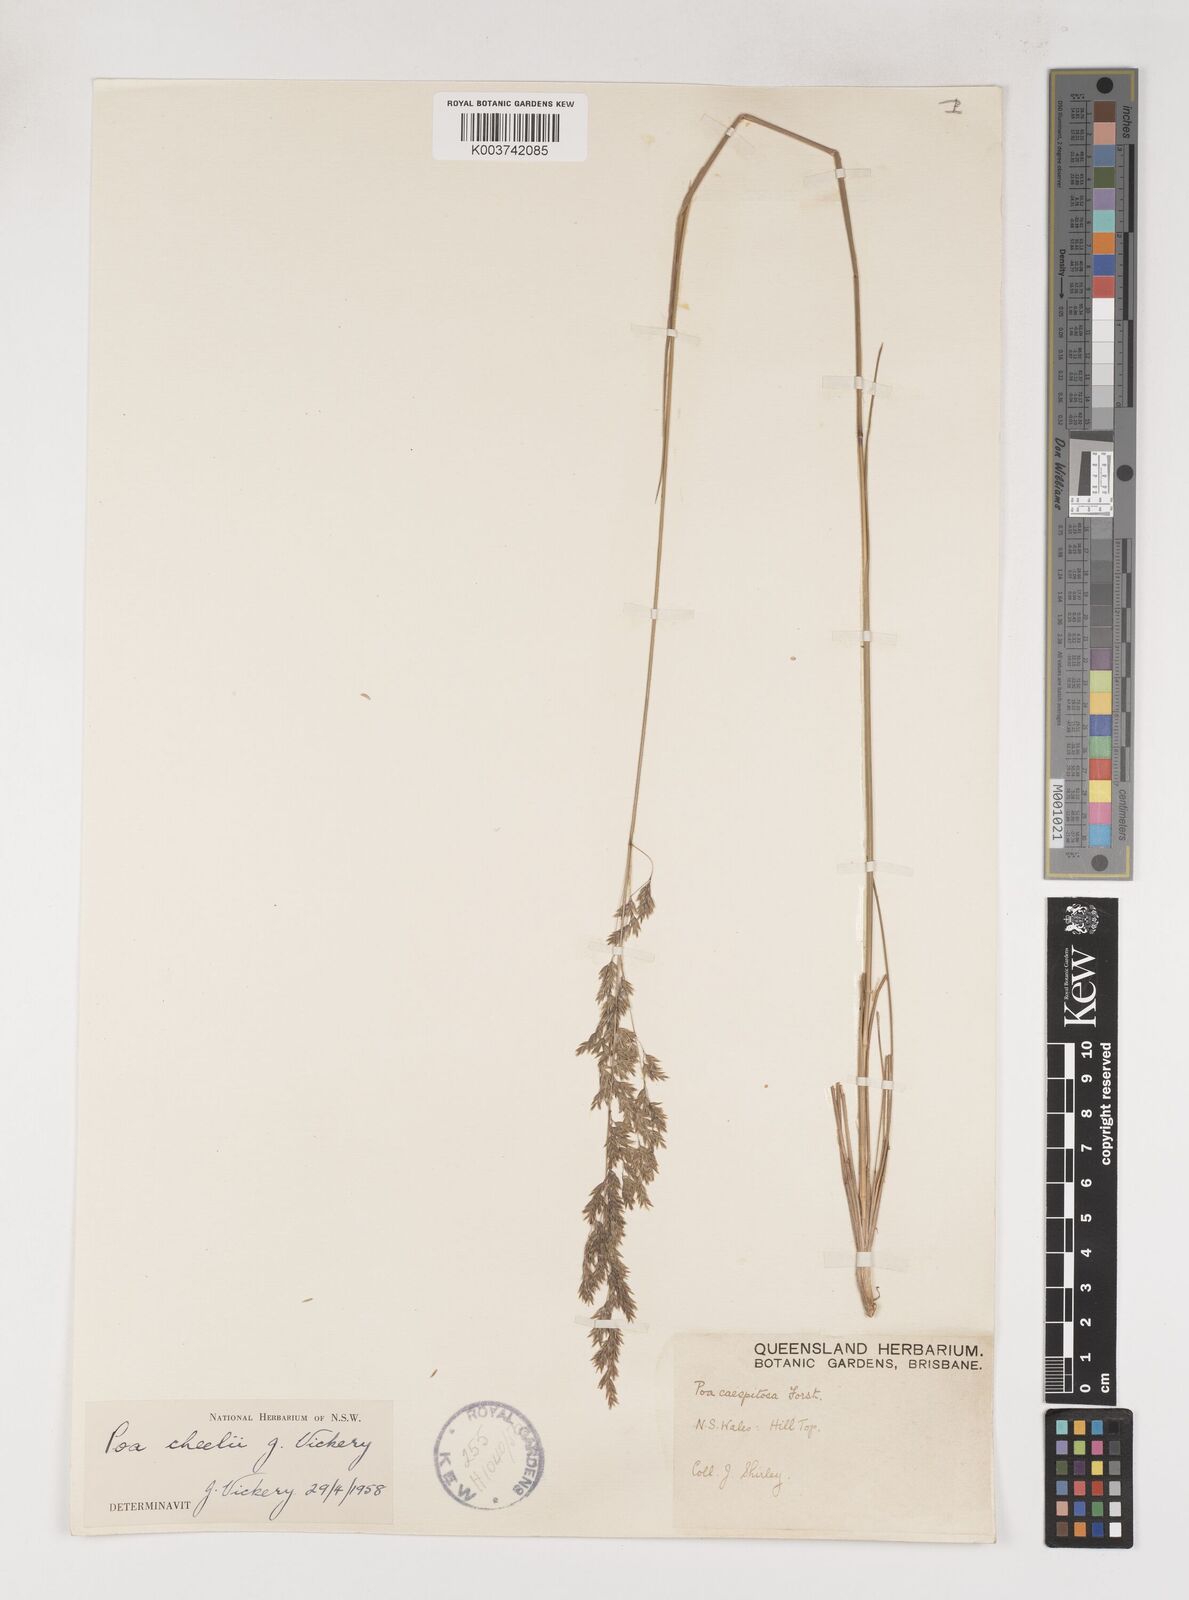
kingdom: Plantae
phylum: Tracheophyta
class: Liliopsida
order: Poales
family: Poaceae
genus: Poa
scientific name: Poa cheelii
